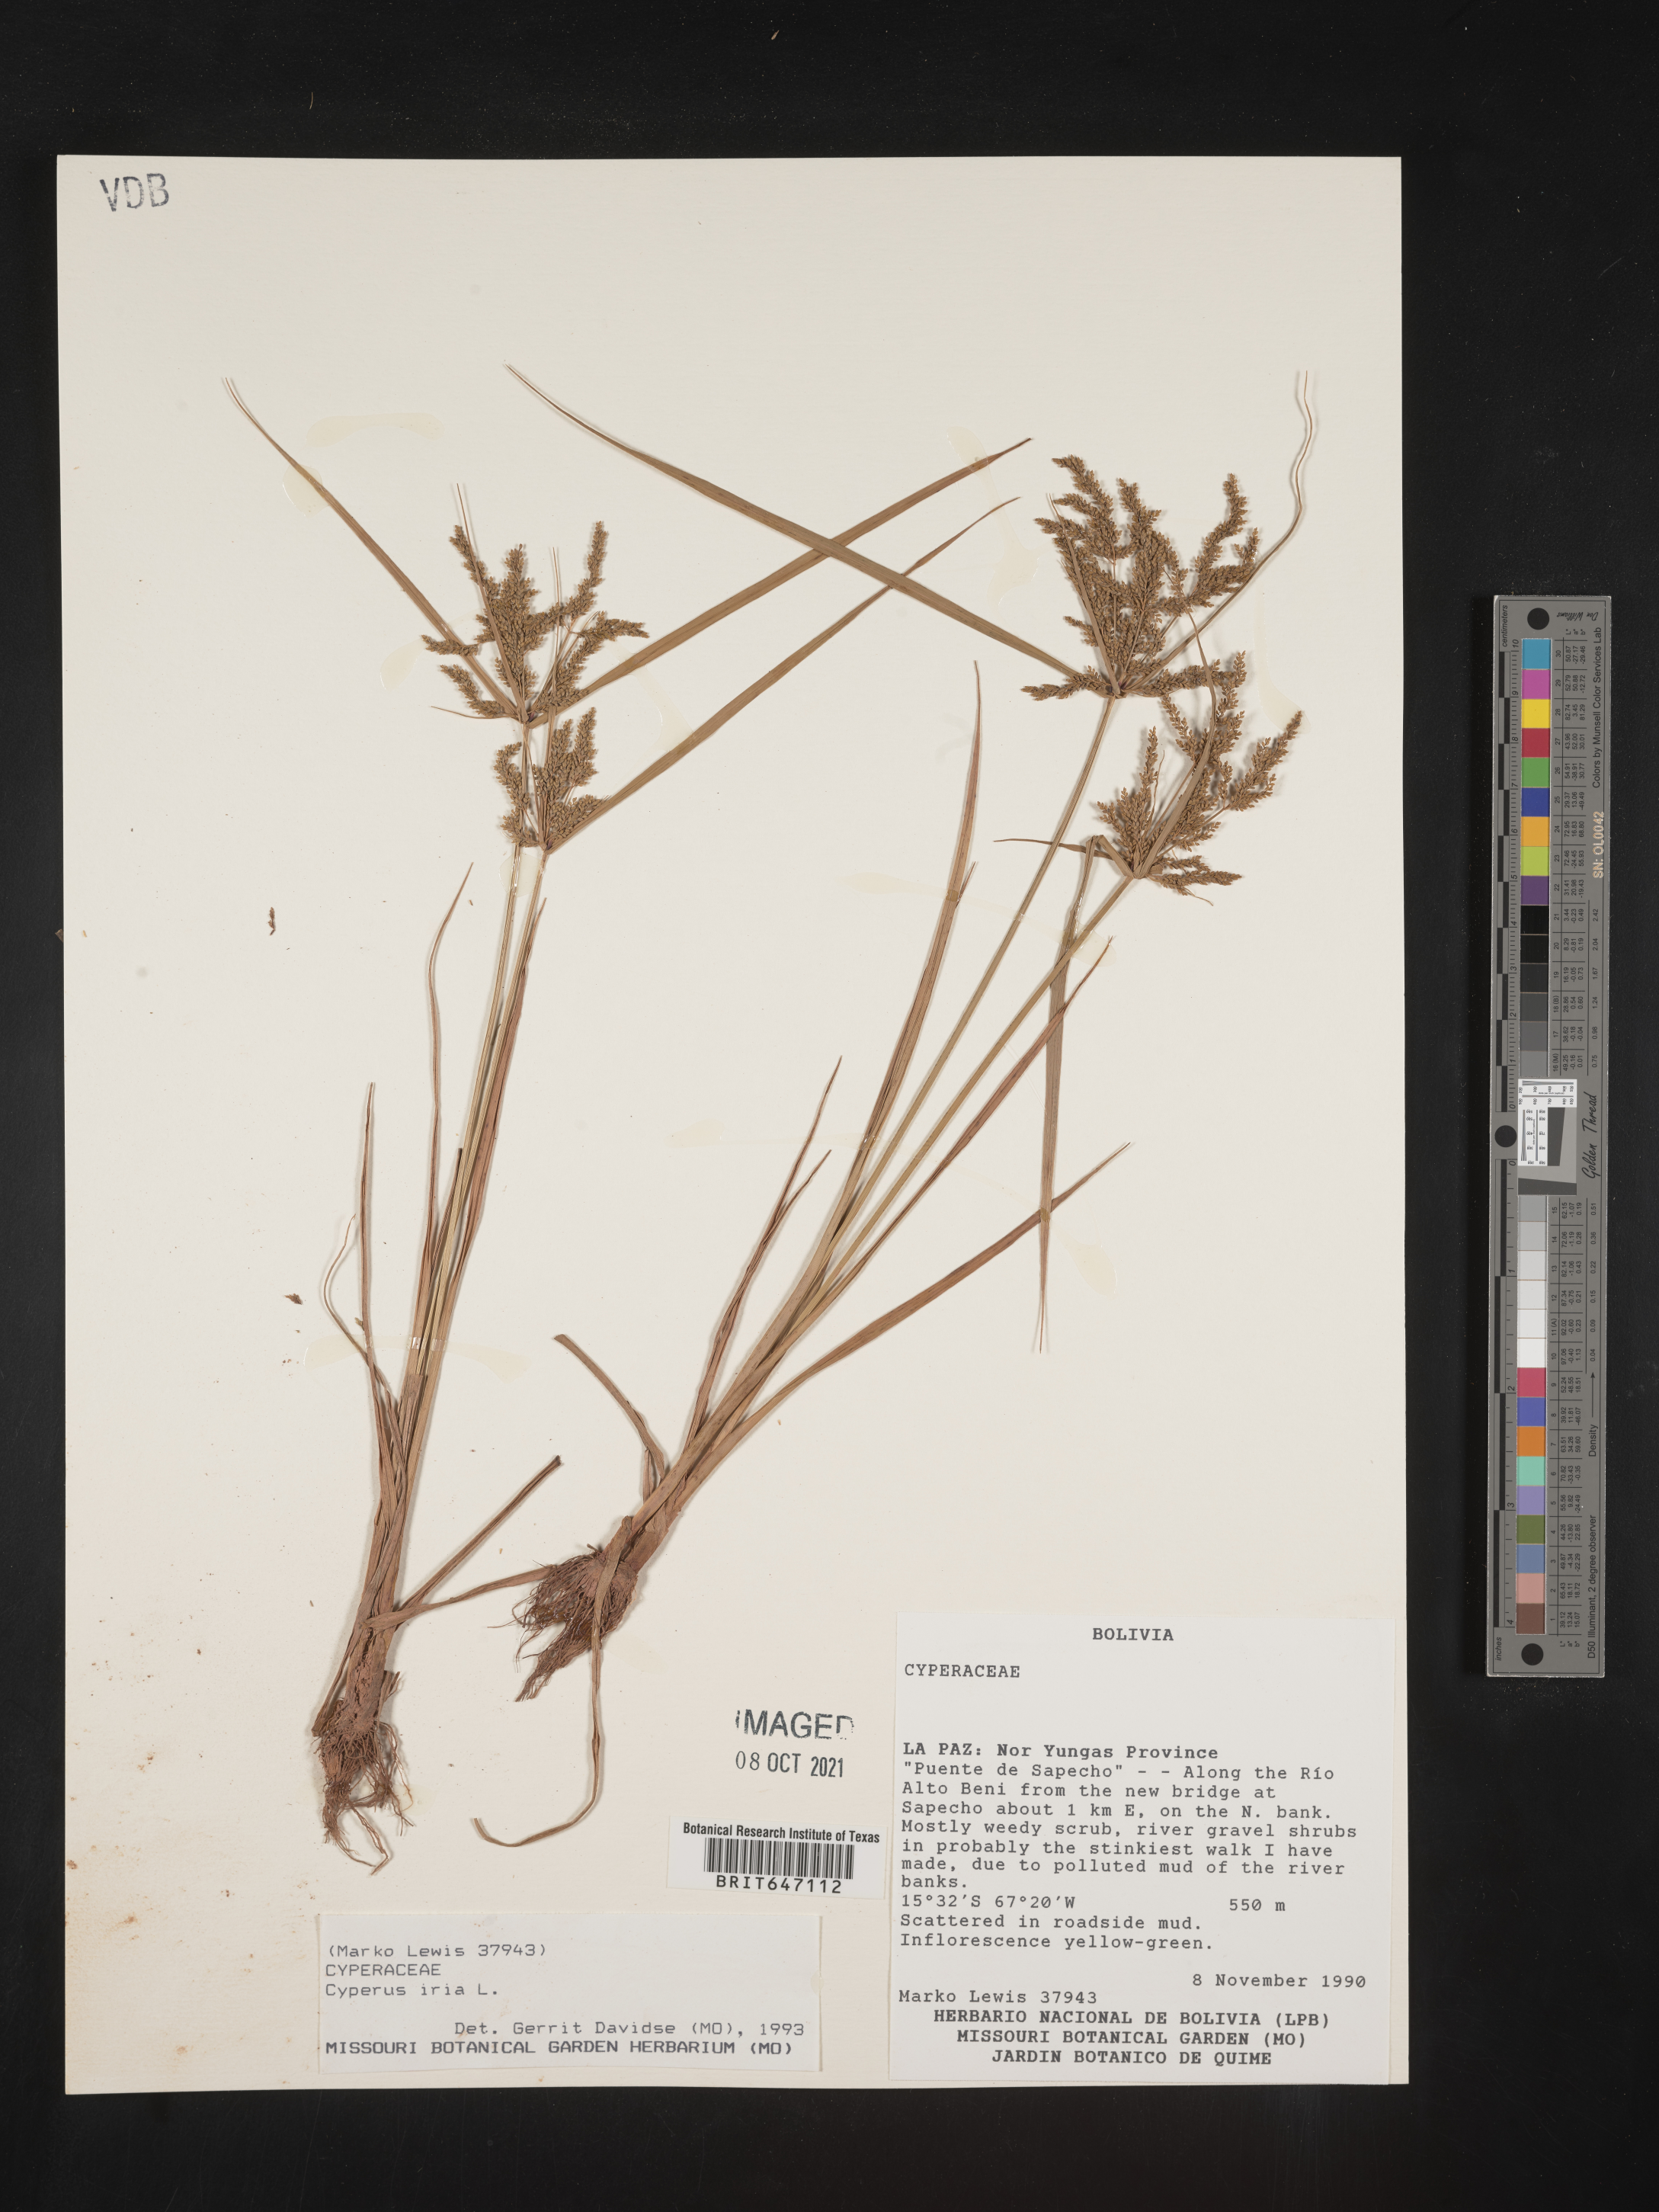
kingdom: Plantae
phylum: Tracheophyta
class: Liliopsida
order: Poales
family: Cyperaceae
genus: Cyperus
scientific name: Cyperus iria
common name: Ricefield flatsedge
